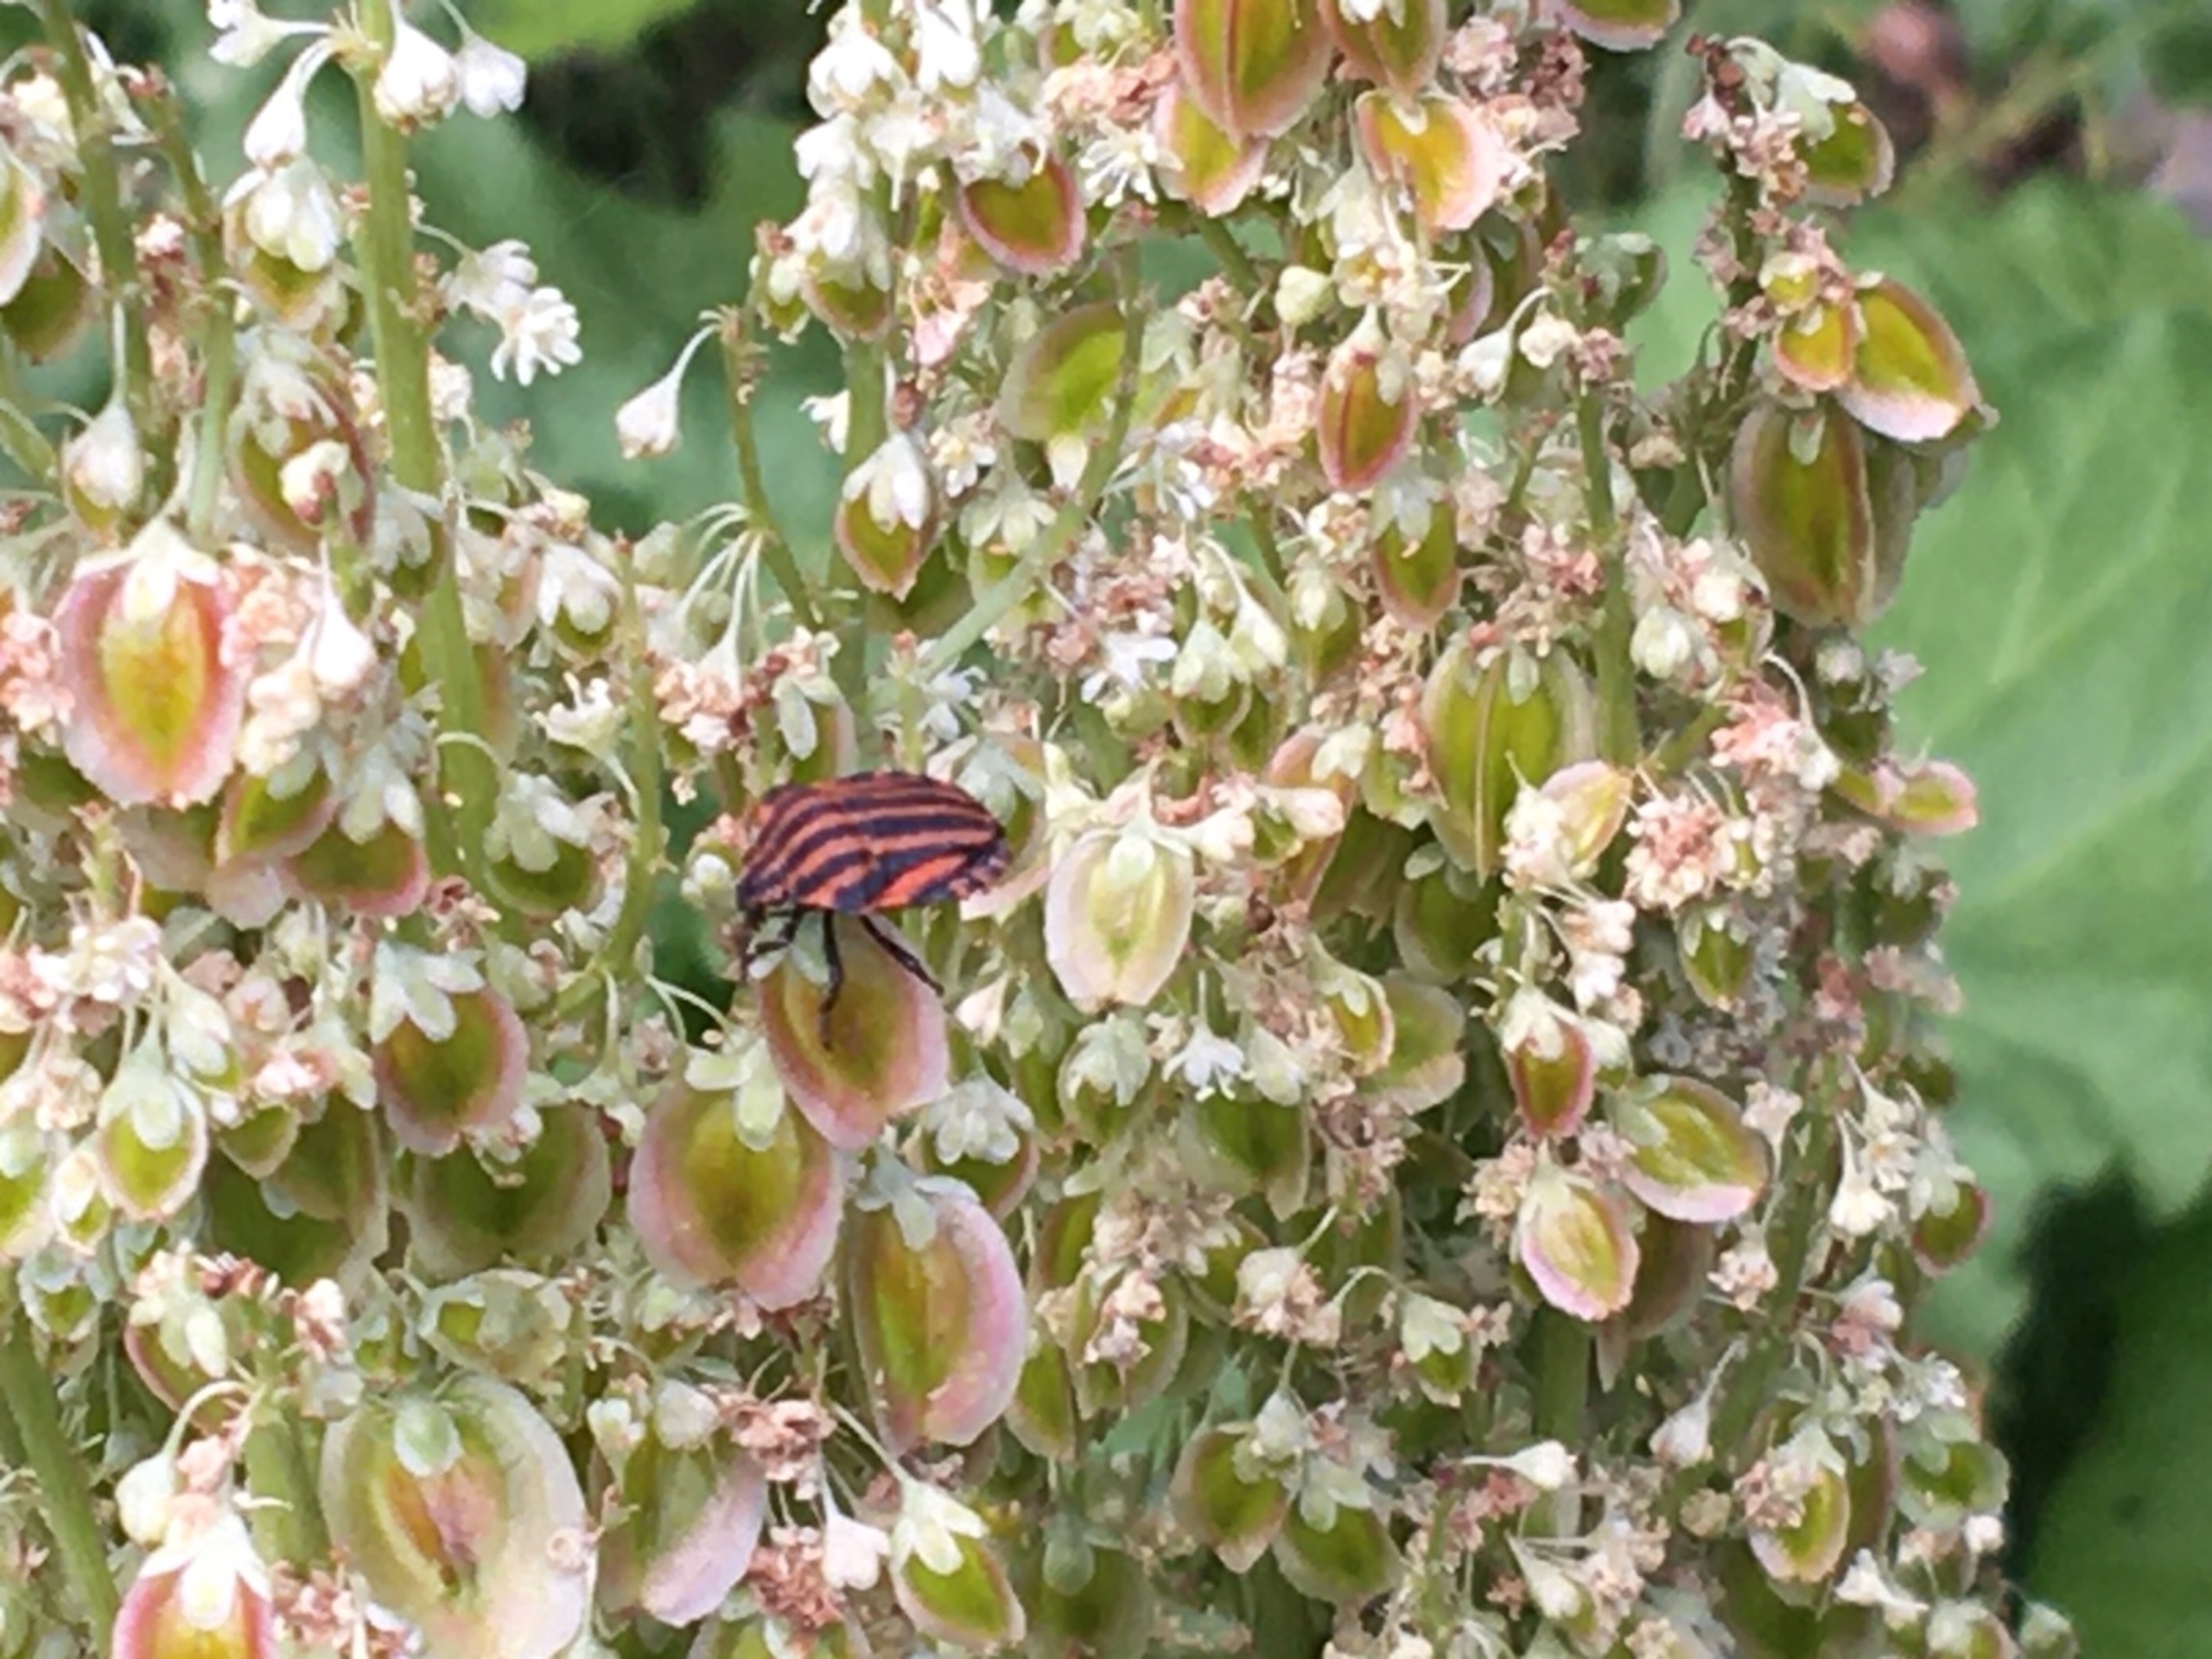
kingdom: Animalia
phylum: Arthropoda
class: Insecta
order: Hemiptera
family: Pentatomidae
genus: Graphosoma
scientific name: Graphosoma italicum
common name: Stribetæge
